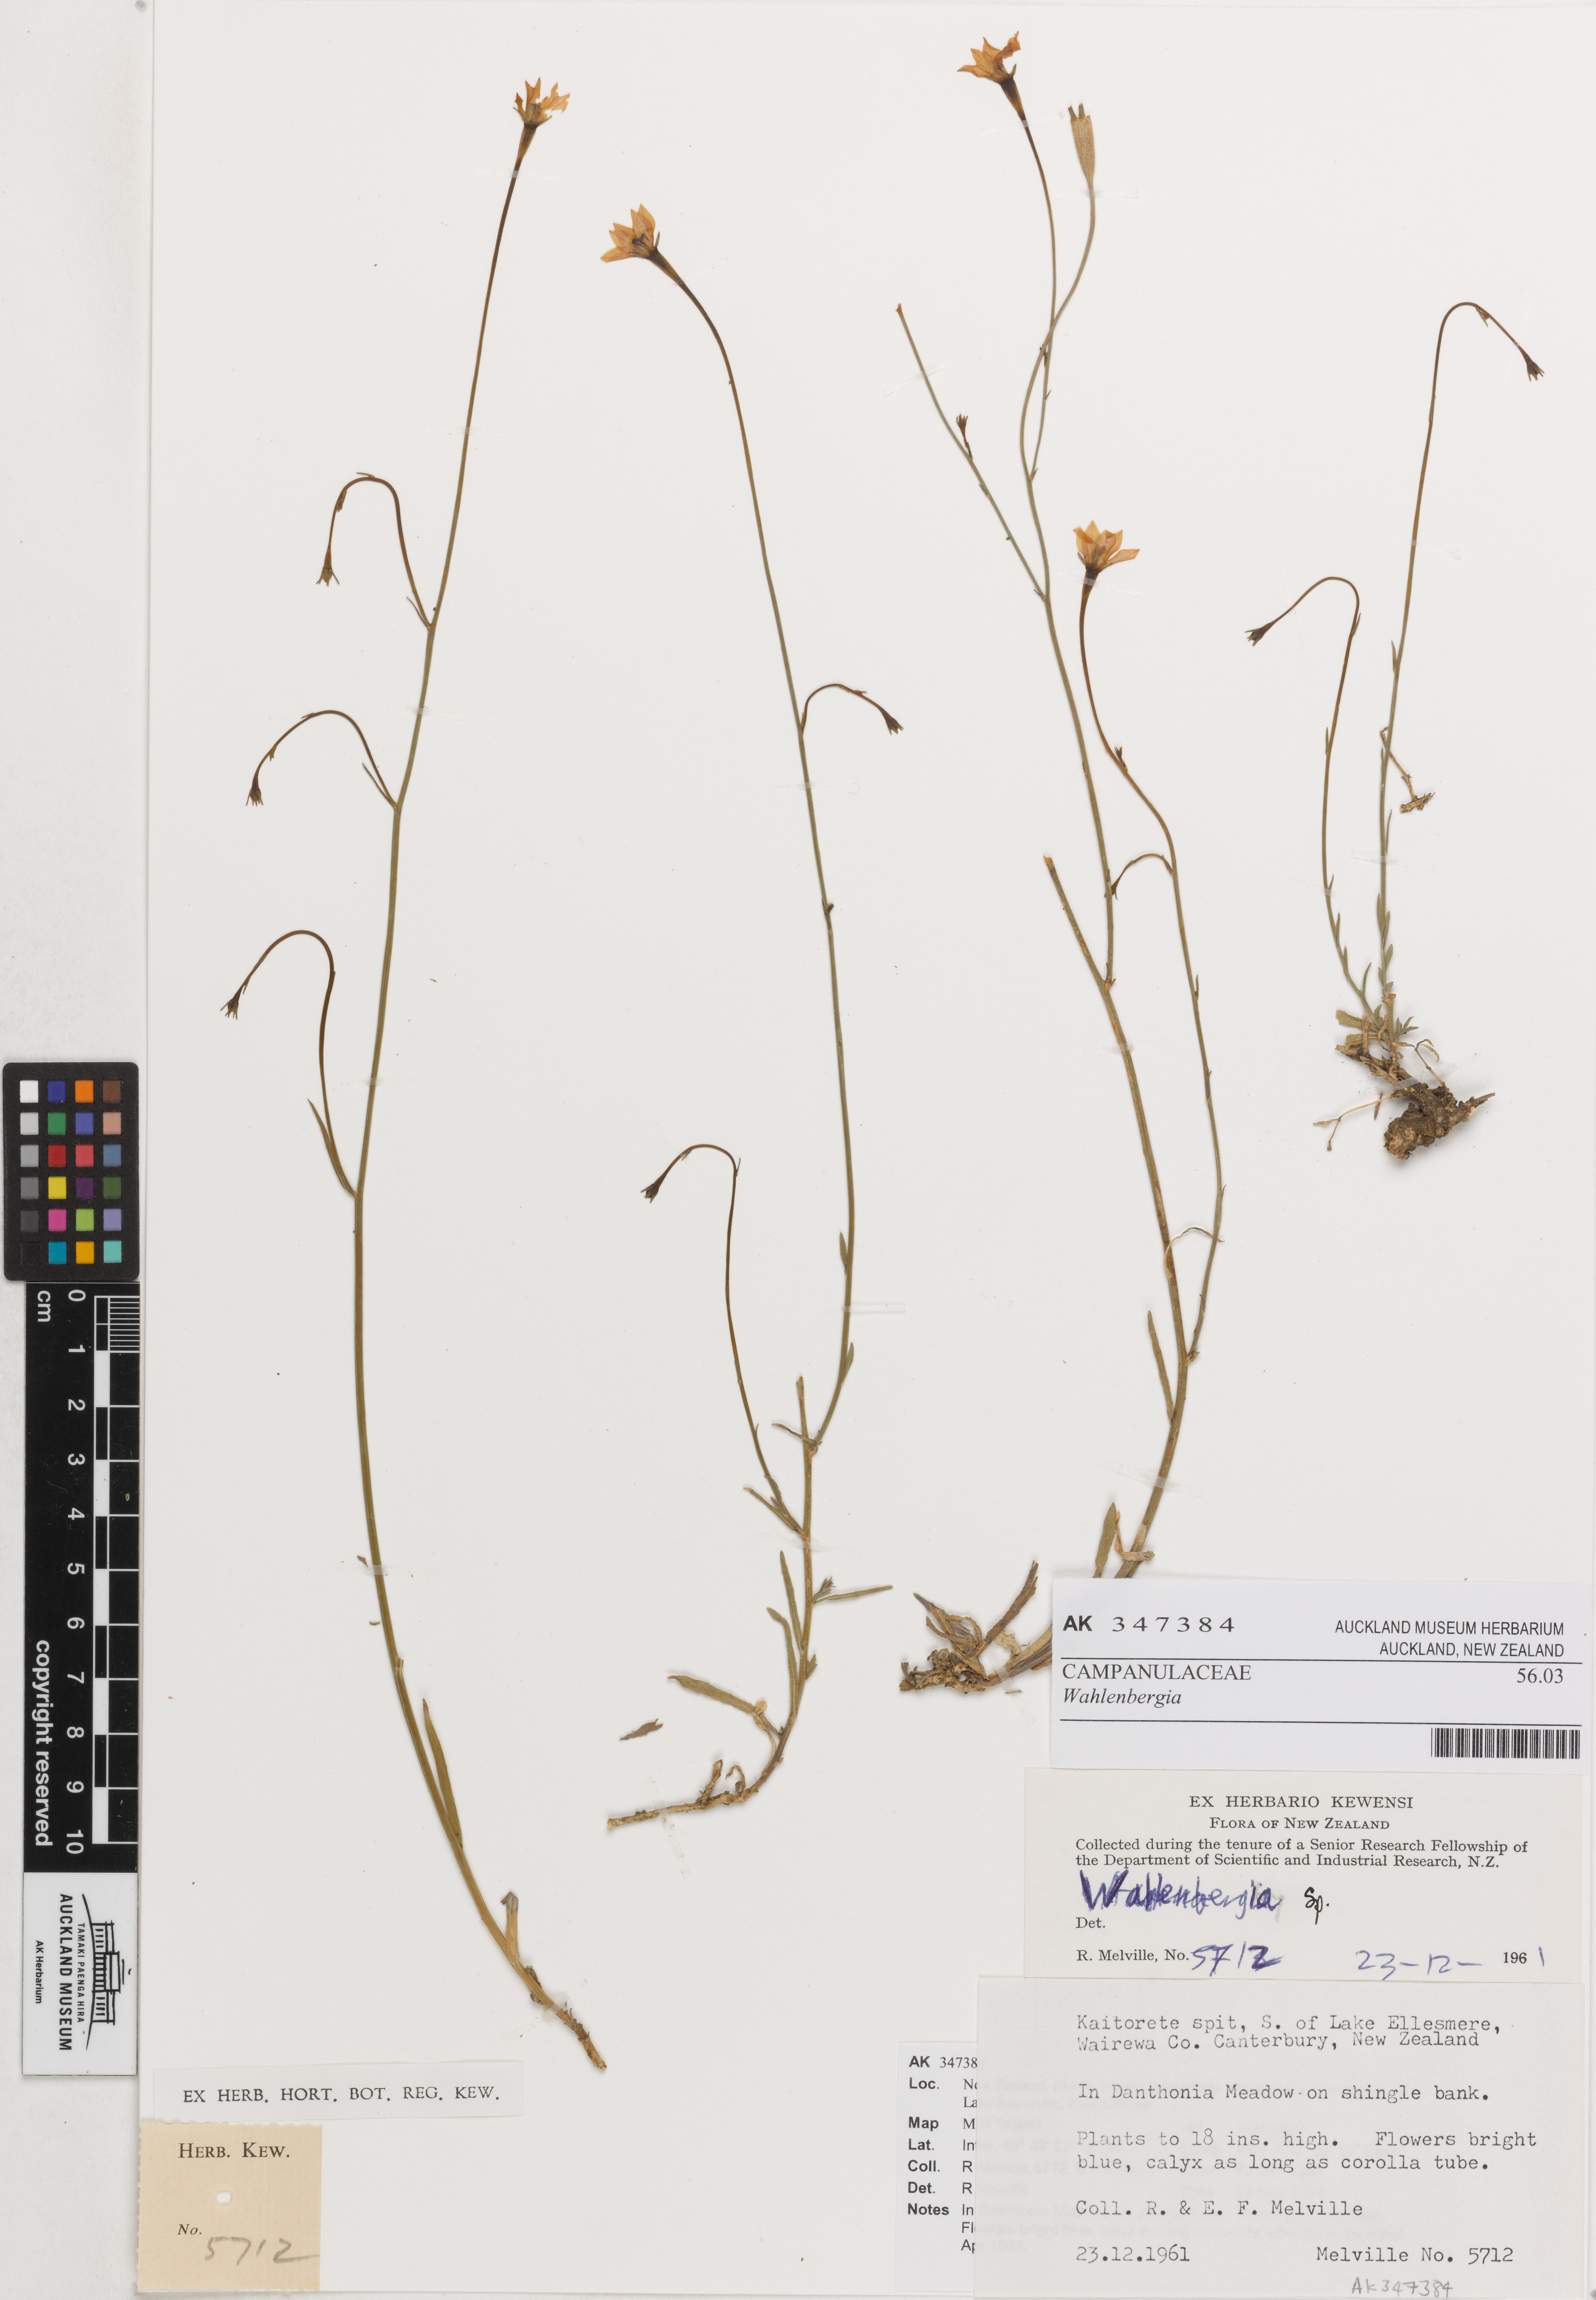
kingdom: Plantae
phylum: Tracheophyta
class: Magnoliopsida
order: Asterales
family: Campanulaceae
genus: Wahlenbergia
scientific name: Wahlenbergia
